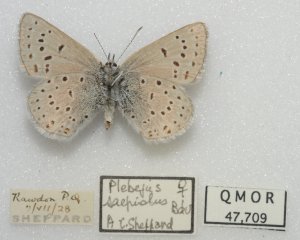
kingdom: Animalia
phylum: Arthropoda
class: Insecta
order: Lepidoptera
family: Lycaenidae
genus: Plebejus
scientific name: Plebejus saepiolus
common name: Greenish Blue
